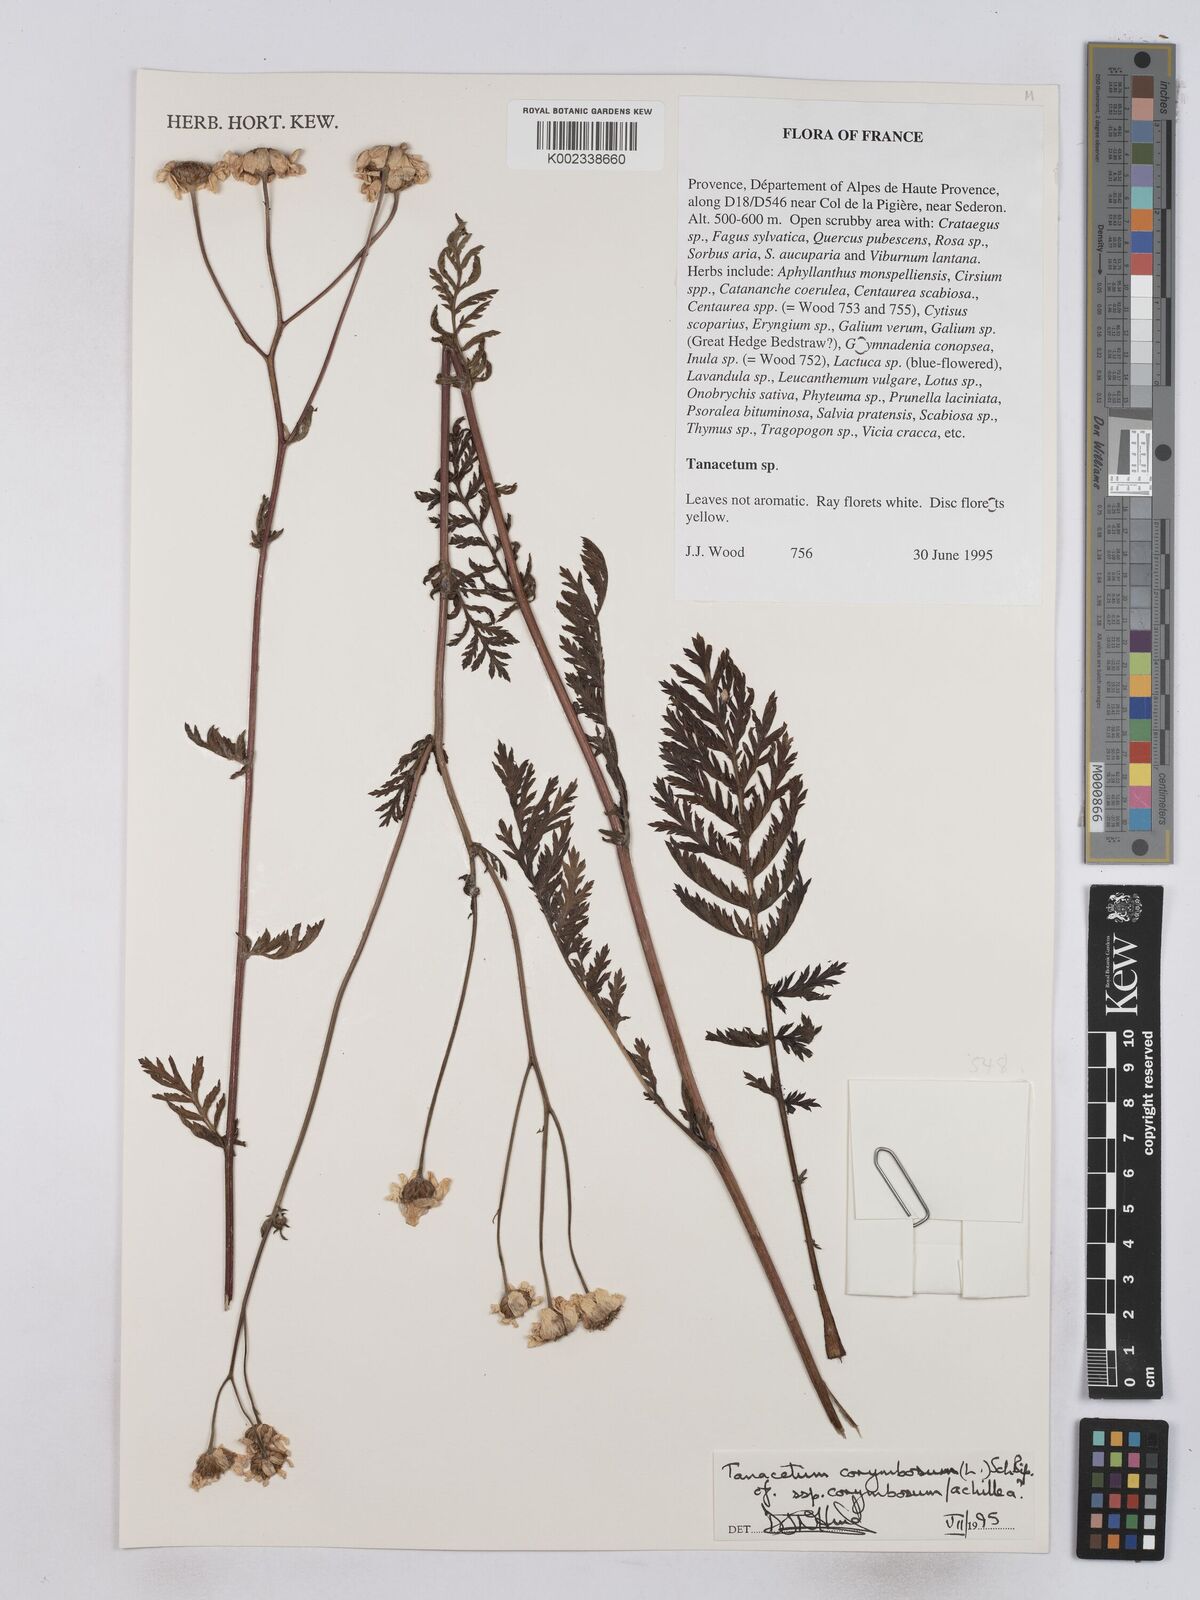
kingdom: Plantae
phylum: Tracheophyta
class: Magnoliopsida
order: Asterales
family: Asteraceae
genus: Tanacetum
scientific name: Tanacetum corymbosum
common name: Scentless feverfew
